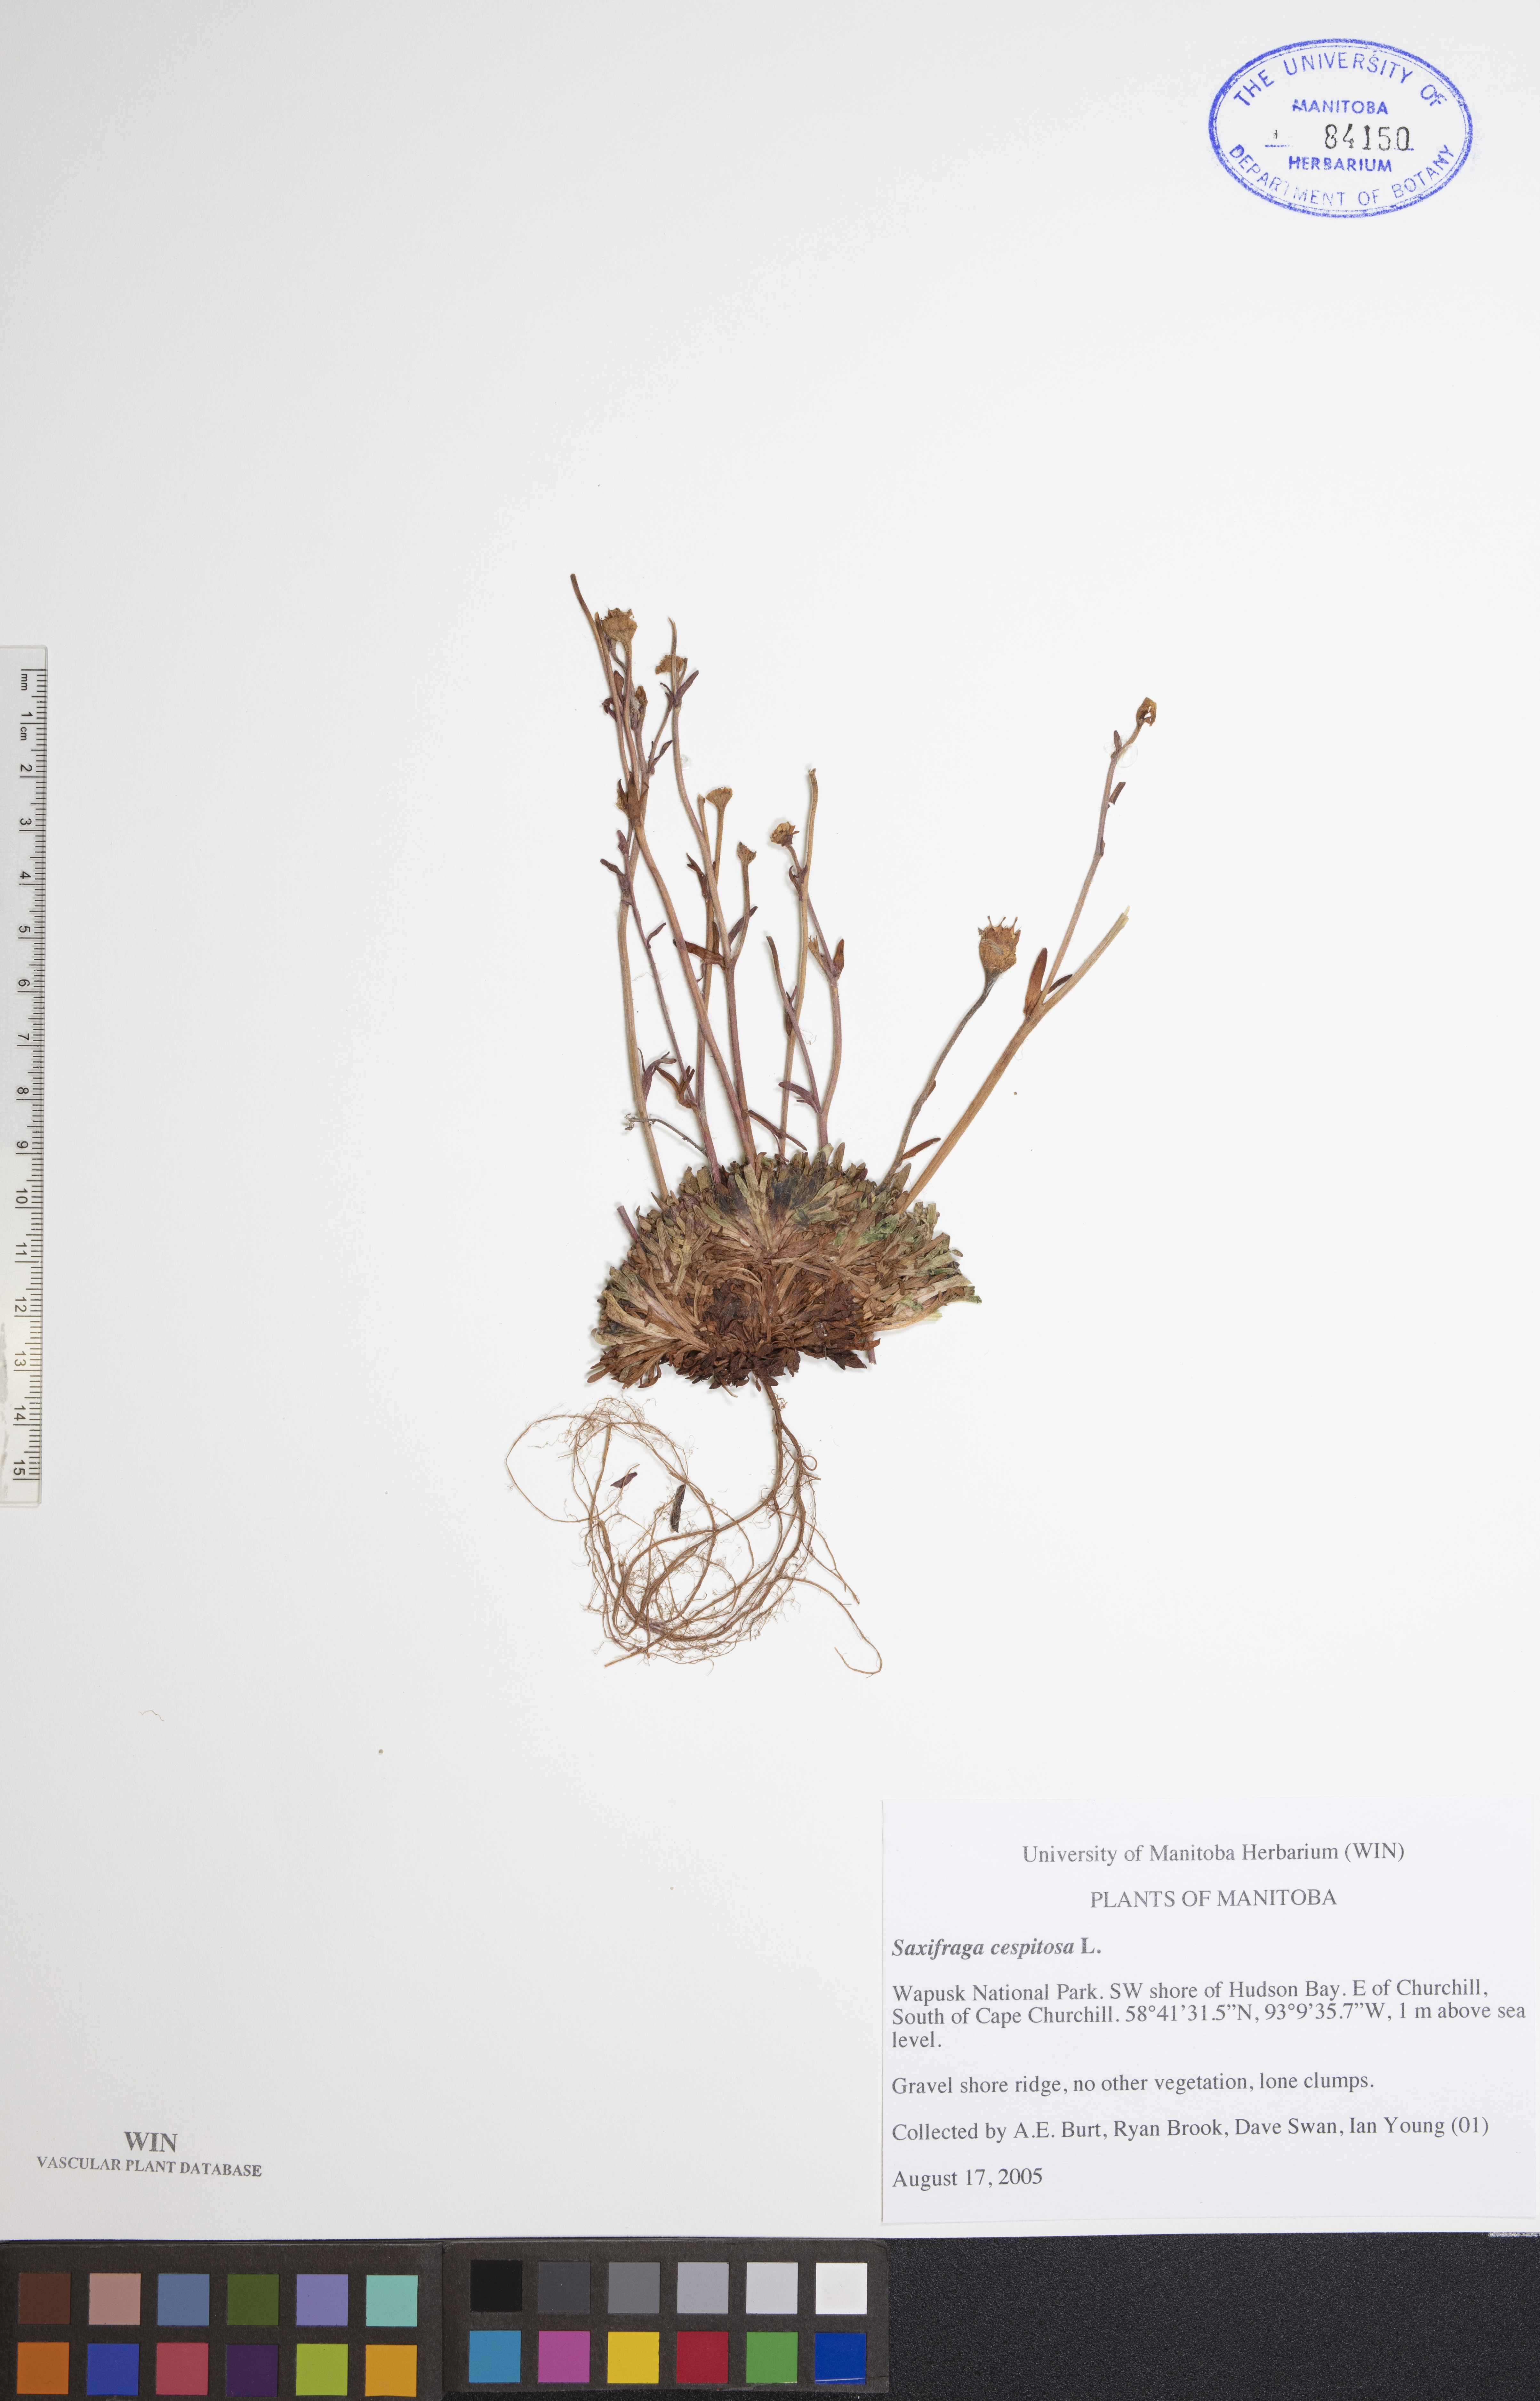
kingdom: Plantae
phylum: Tracheophyta
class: Magnoliopsida
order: Saxifragales
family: Saxifragaceae
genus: Saxifraga
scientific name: Saxifraga cespitosa
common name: Tufted saxifrage
